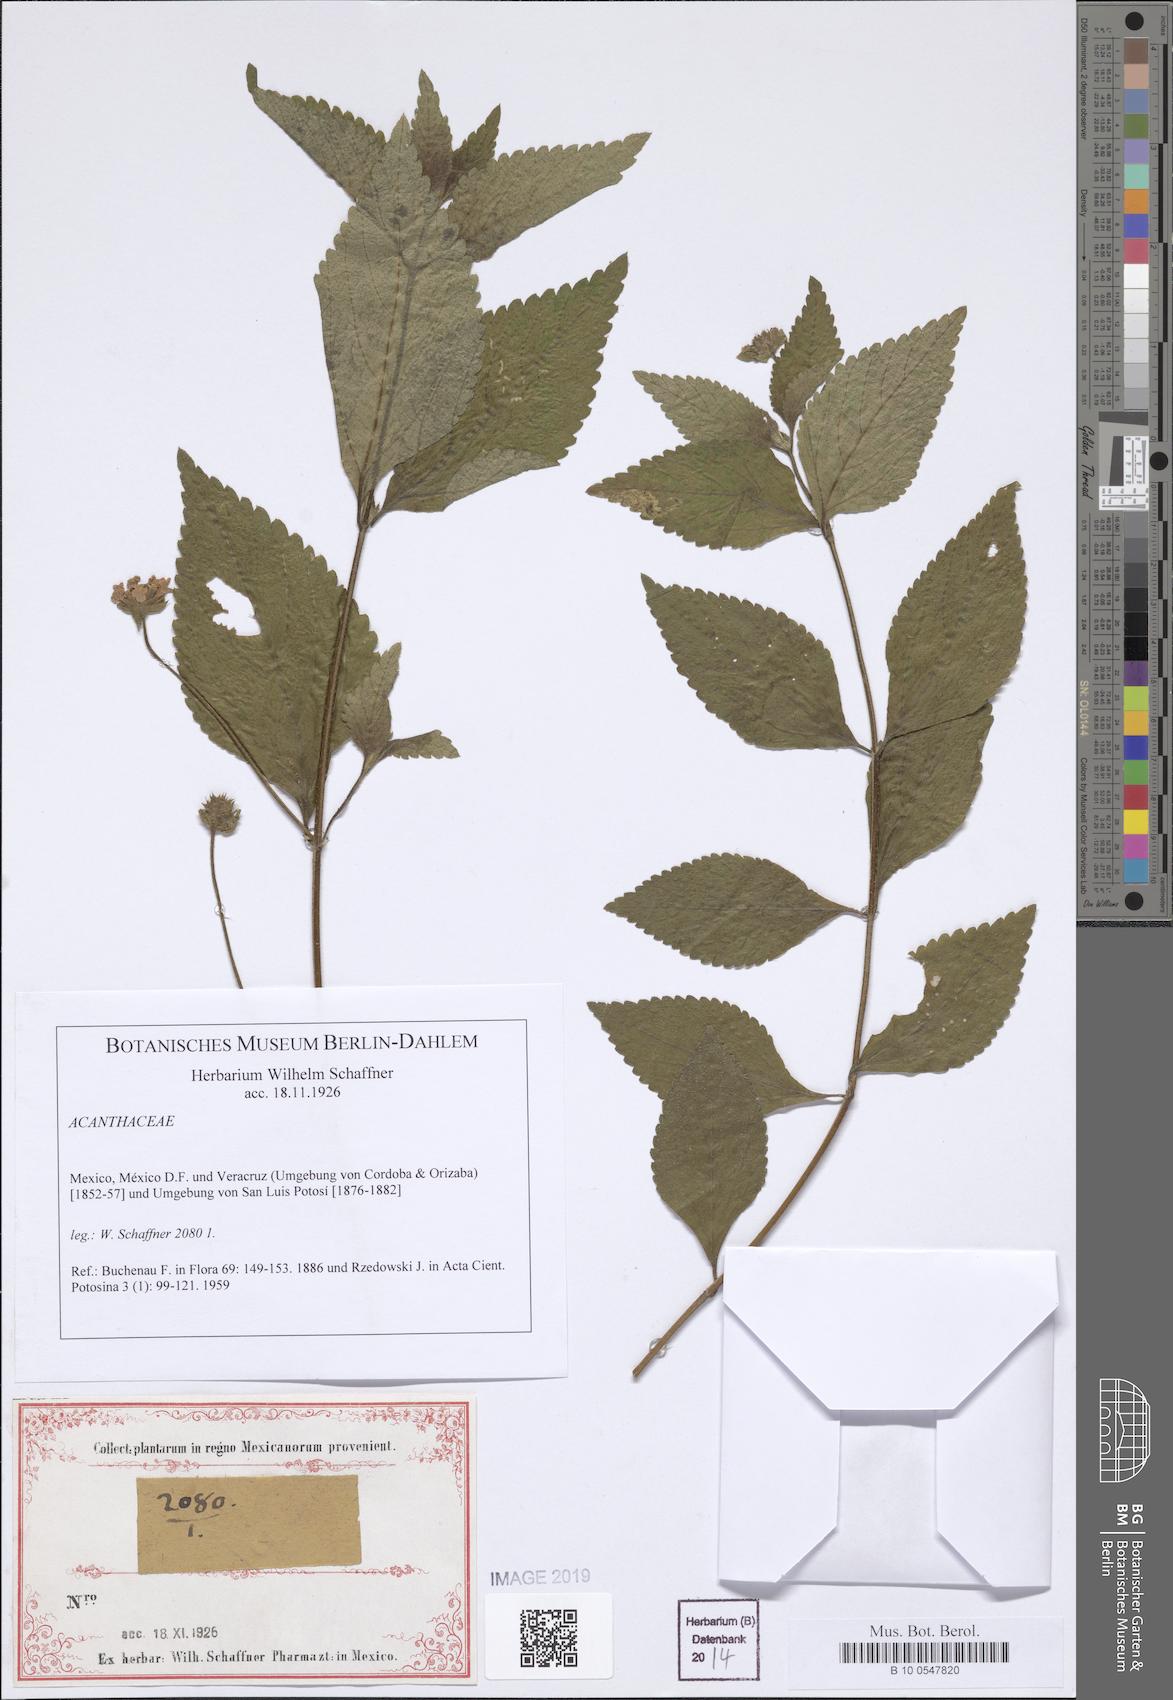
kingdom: Plantae
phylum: Tracheophyta
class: Magnoliopsida
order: Lamiales
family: Acanthaceae
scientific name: Acanthaceae
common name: Acanthaceae
